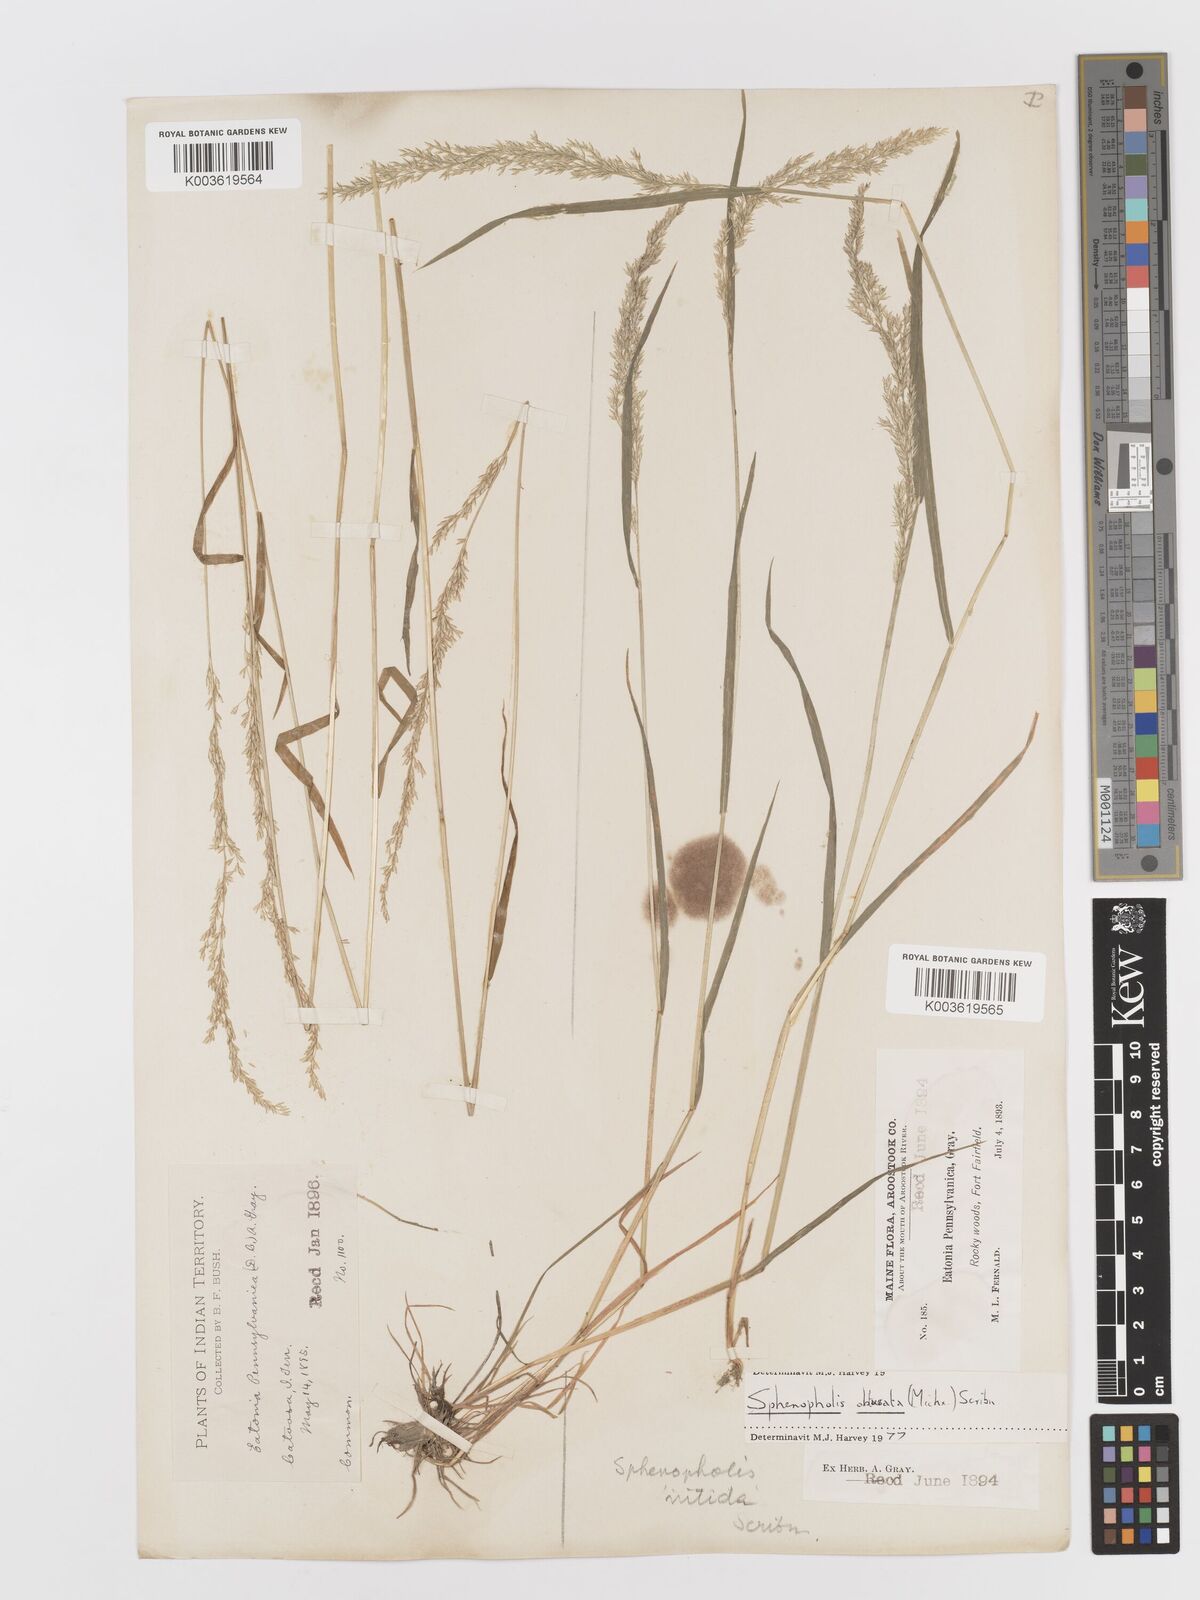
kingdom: Plantae
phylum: Tracheophyta
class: Liliopsida
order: Poales
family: Poaceae
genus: Sphenopholis
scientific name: Sphenopholis obtusata
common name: Prairie grass
